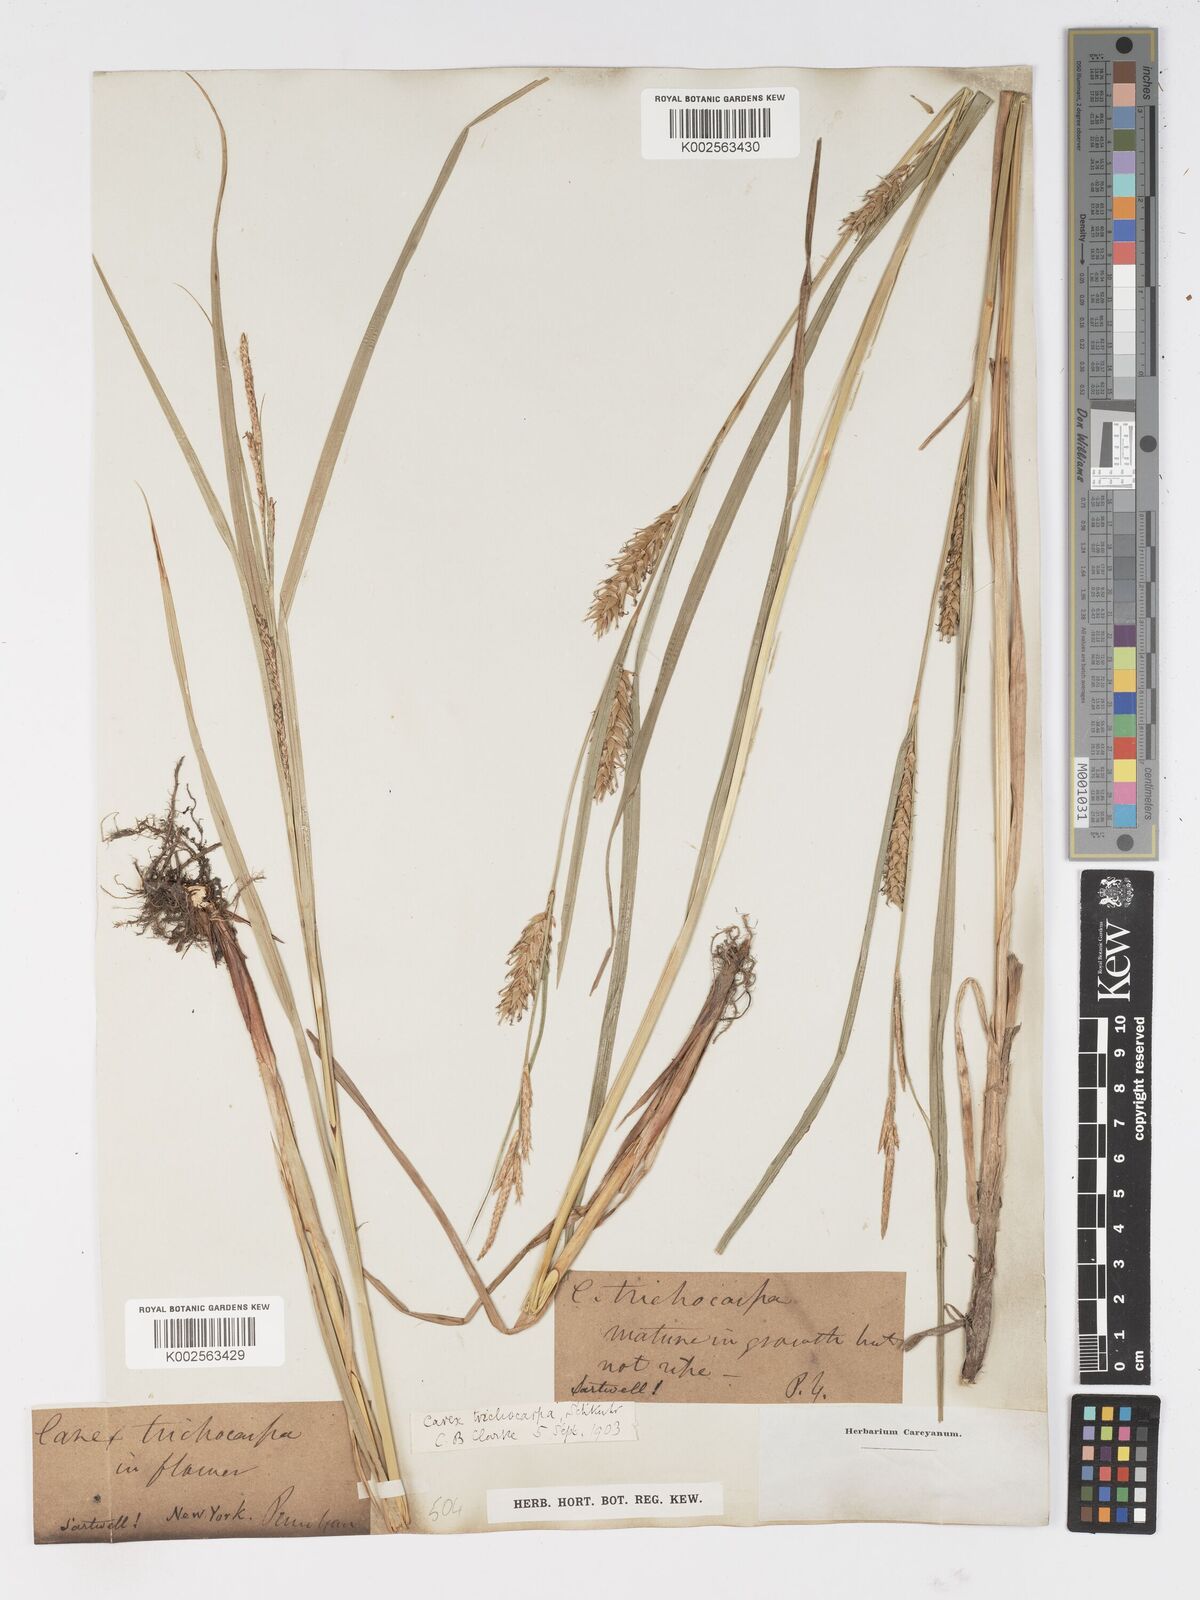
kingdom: Plantae
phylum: Tracheophyta
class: Liliopsida
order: Poales
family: Cyperaceae
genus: Carex
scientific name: Carex trichocarpa
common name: Hairy-fruited lake sedge
